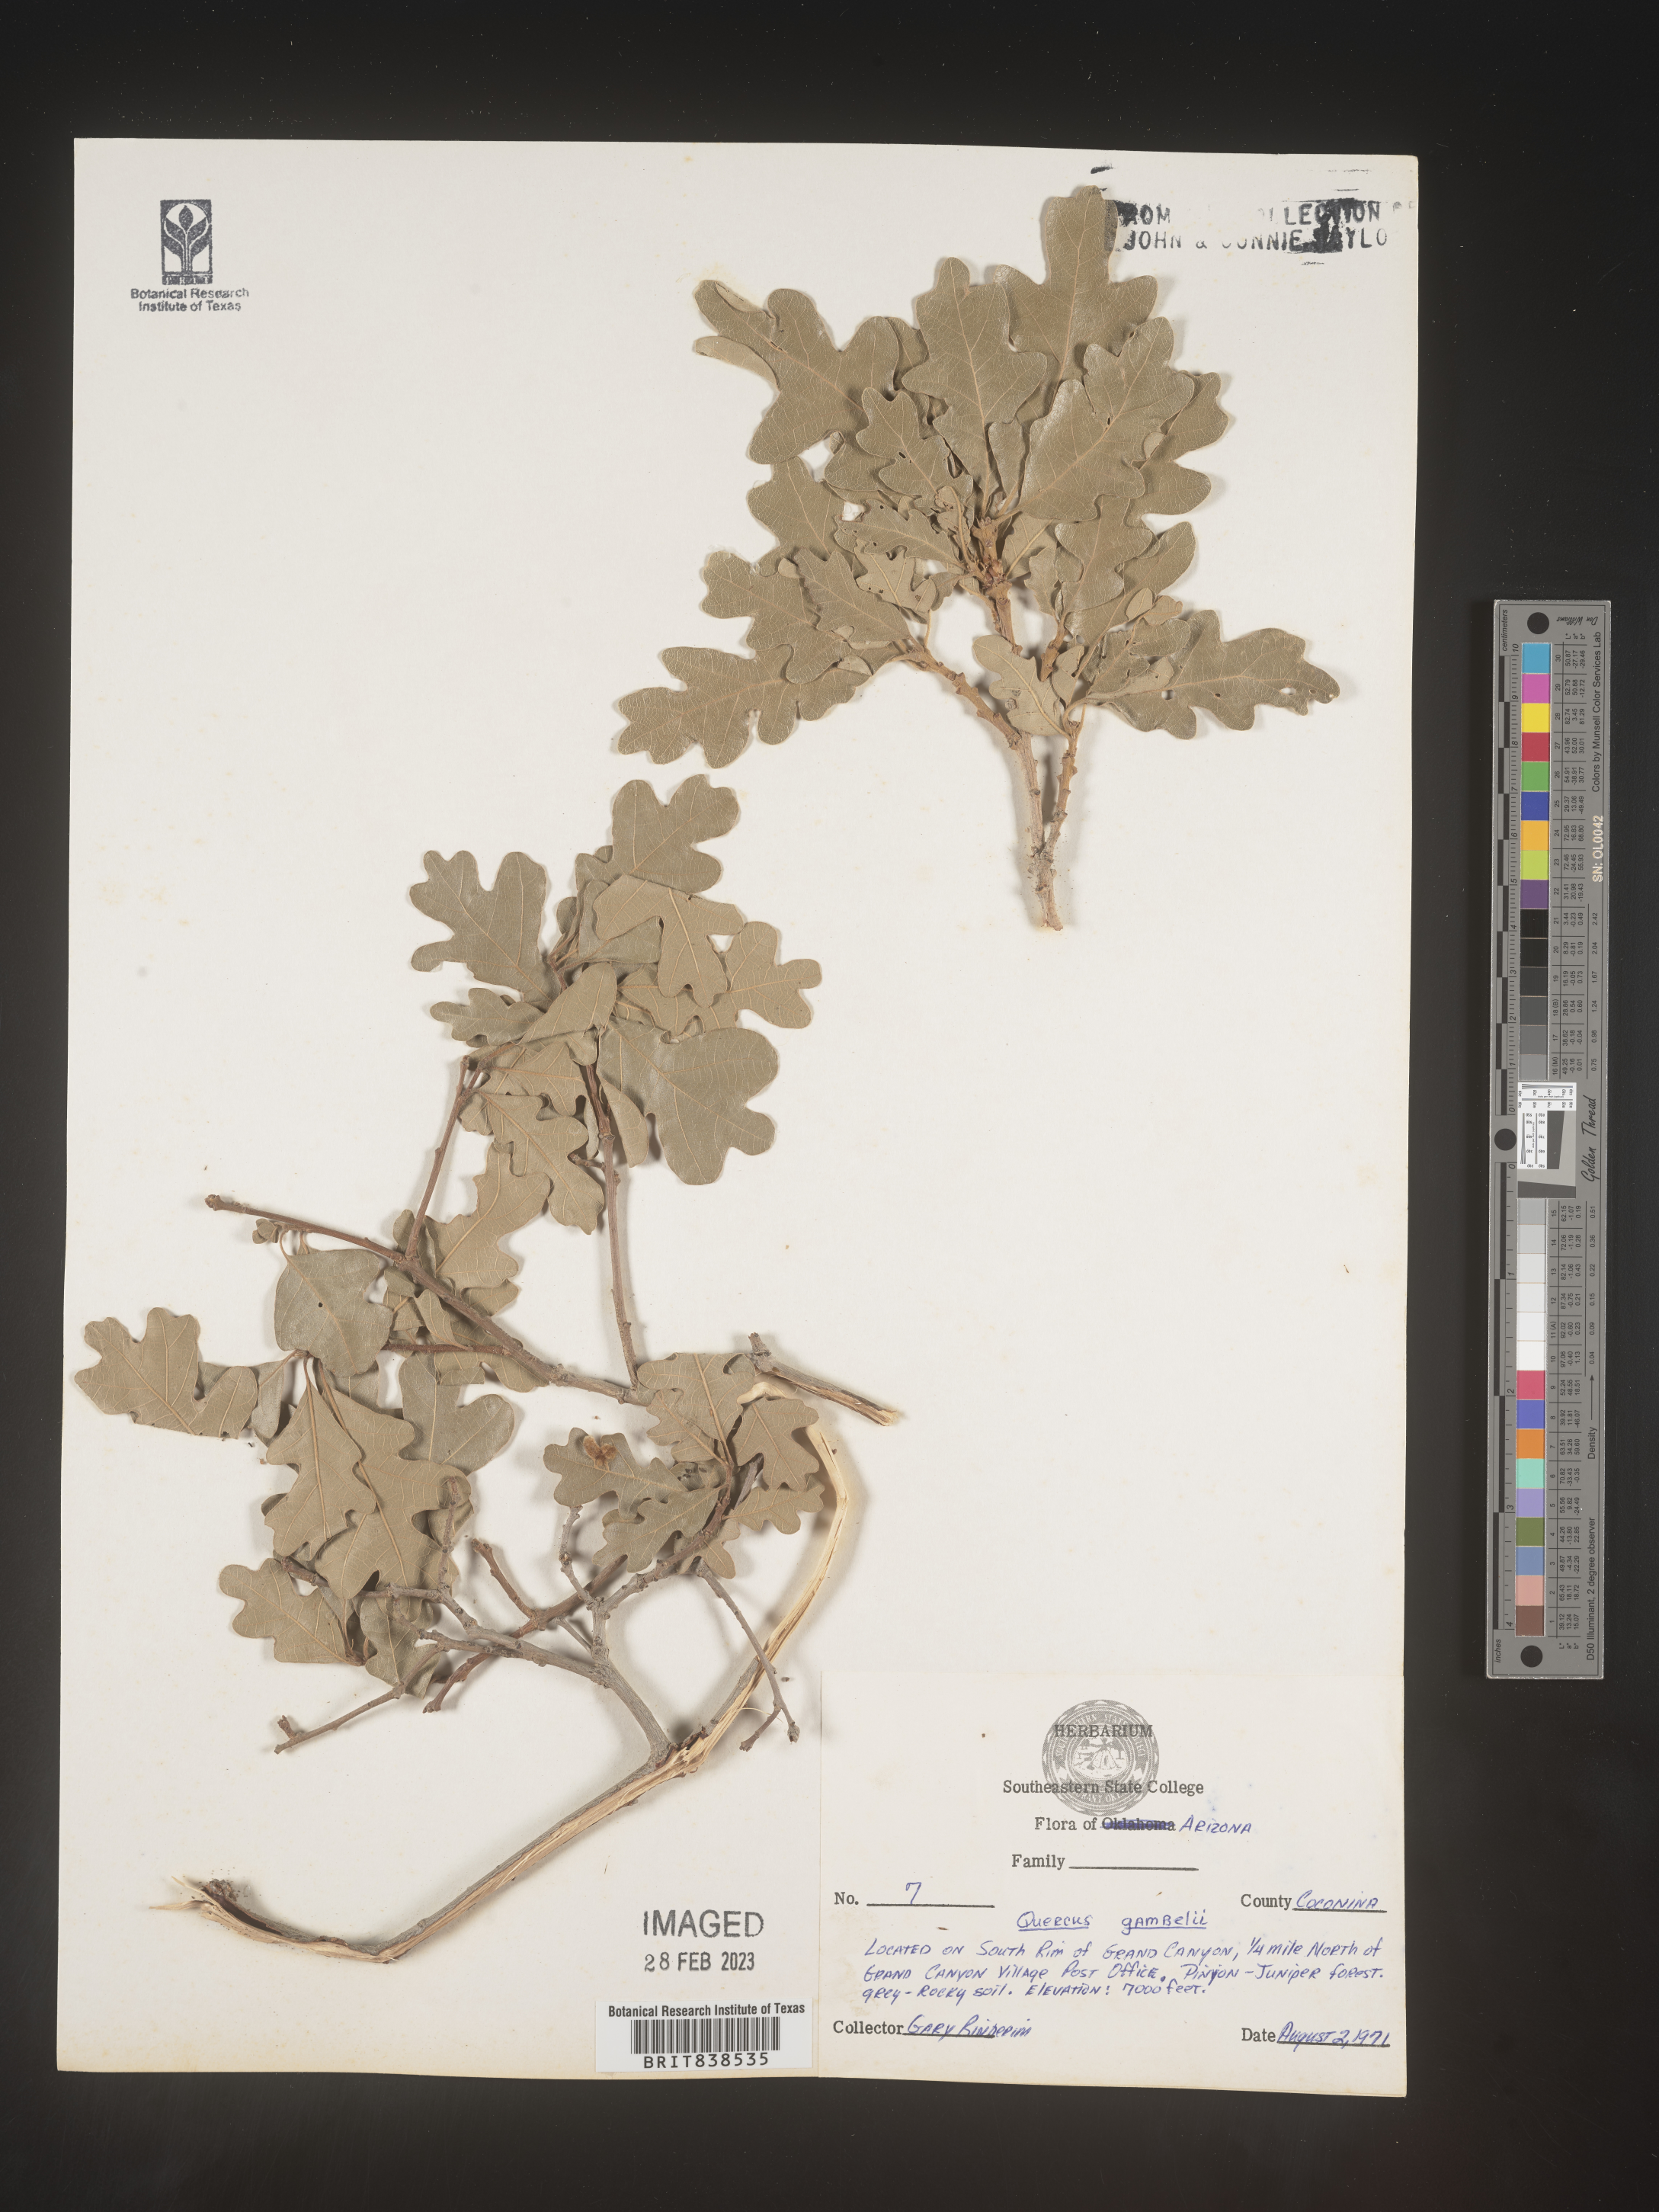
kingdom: Plantae
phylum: Tracheophyta
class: Magnoliopsida
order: Fagales
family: Fagaceae
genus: Quercus
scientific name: Quercus gambelii
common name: Gambel oak
